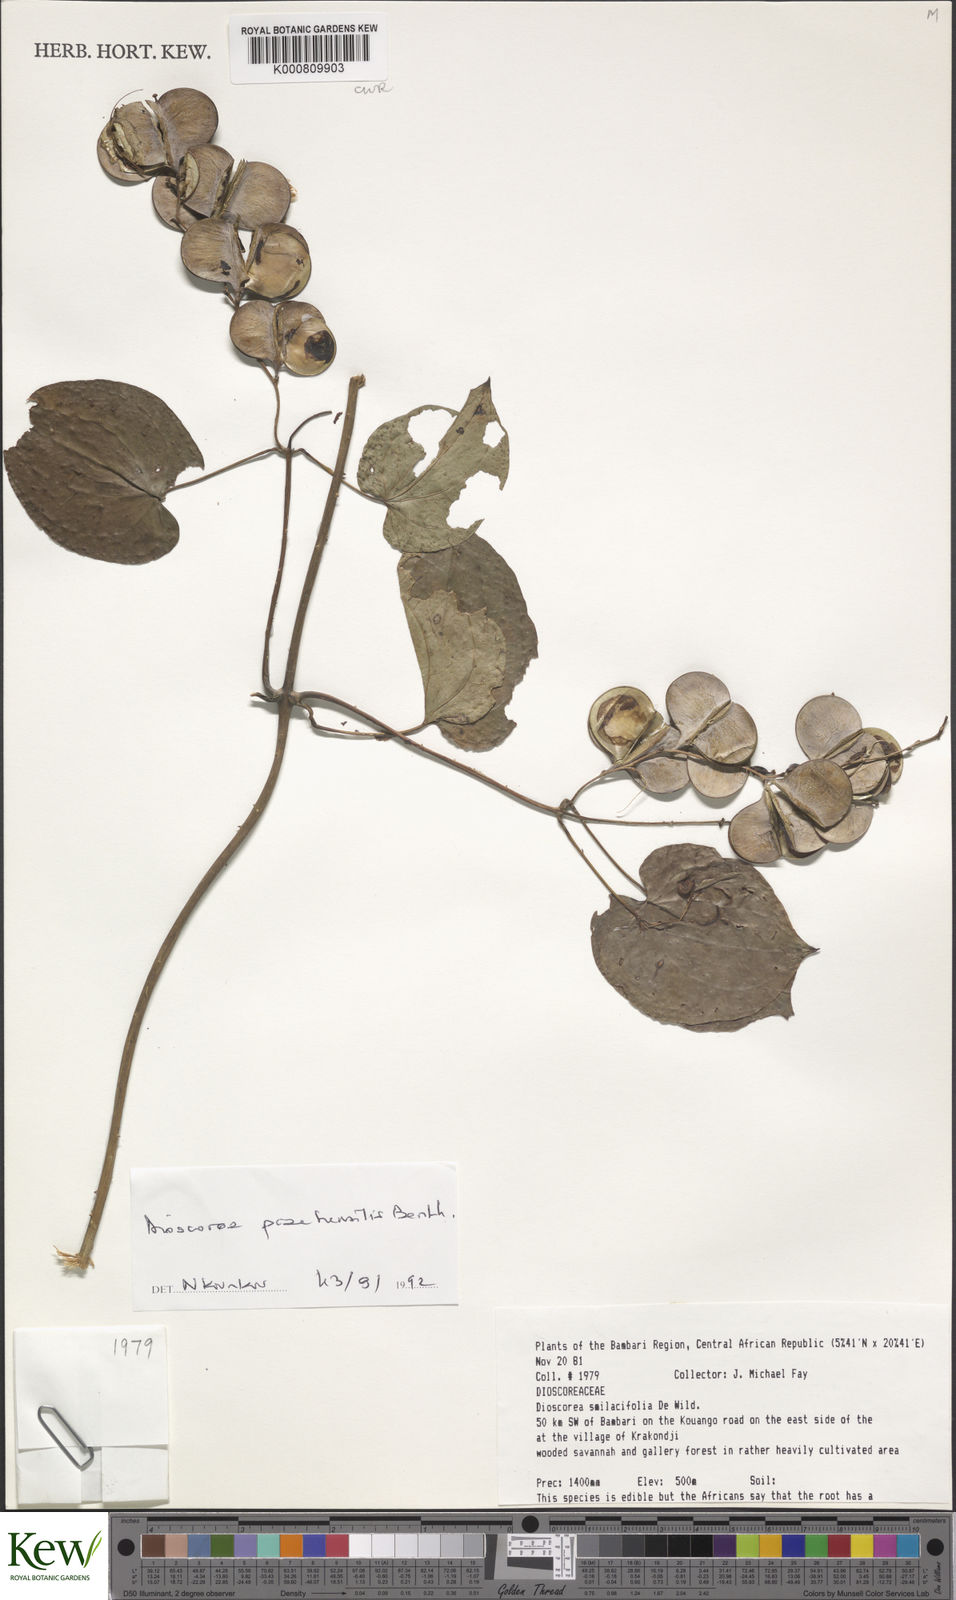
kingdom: Plantae
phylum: Tracheophyta
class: Liliopsida
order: Dioscoreales
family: Dioscoreaceae
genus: Dioscorea
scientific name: Dioscorea smilacifolia
